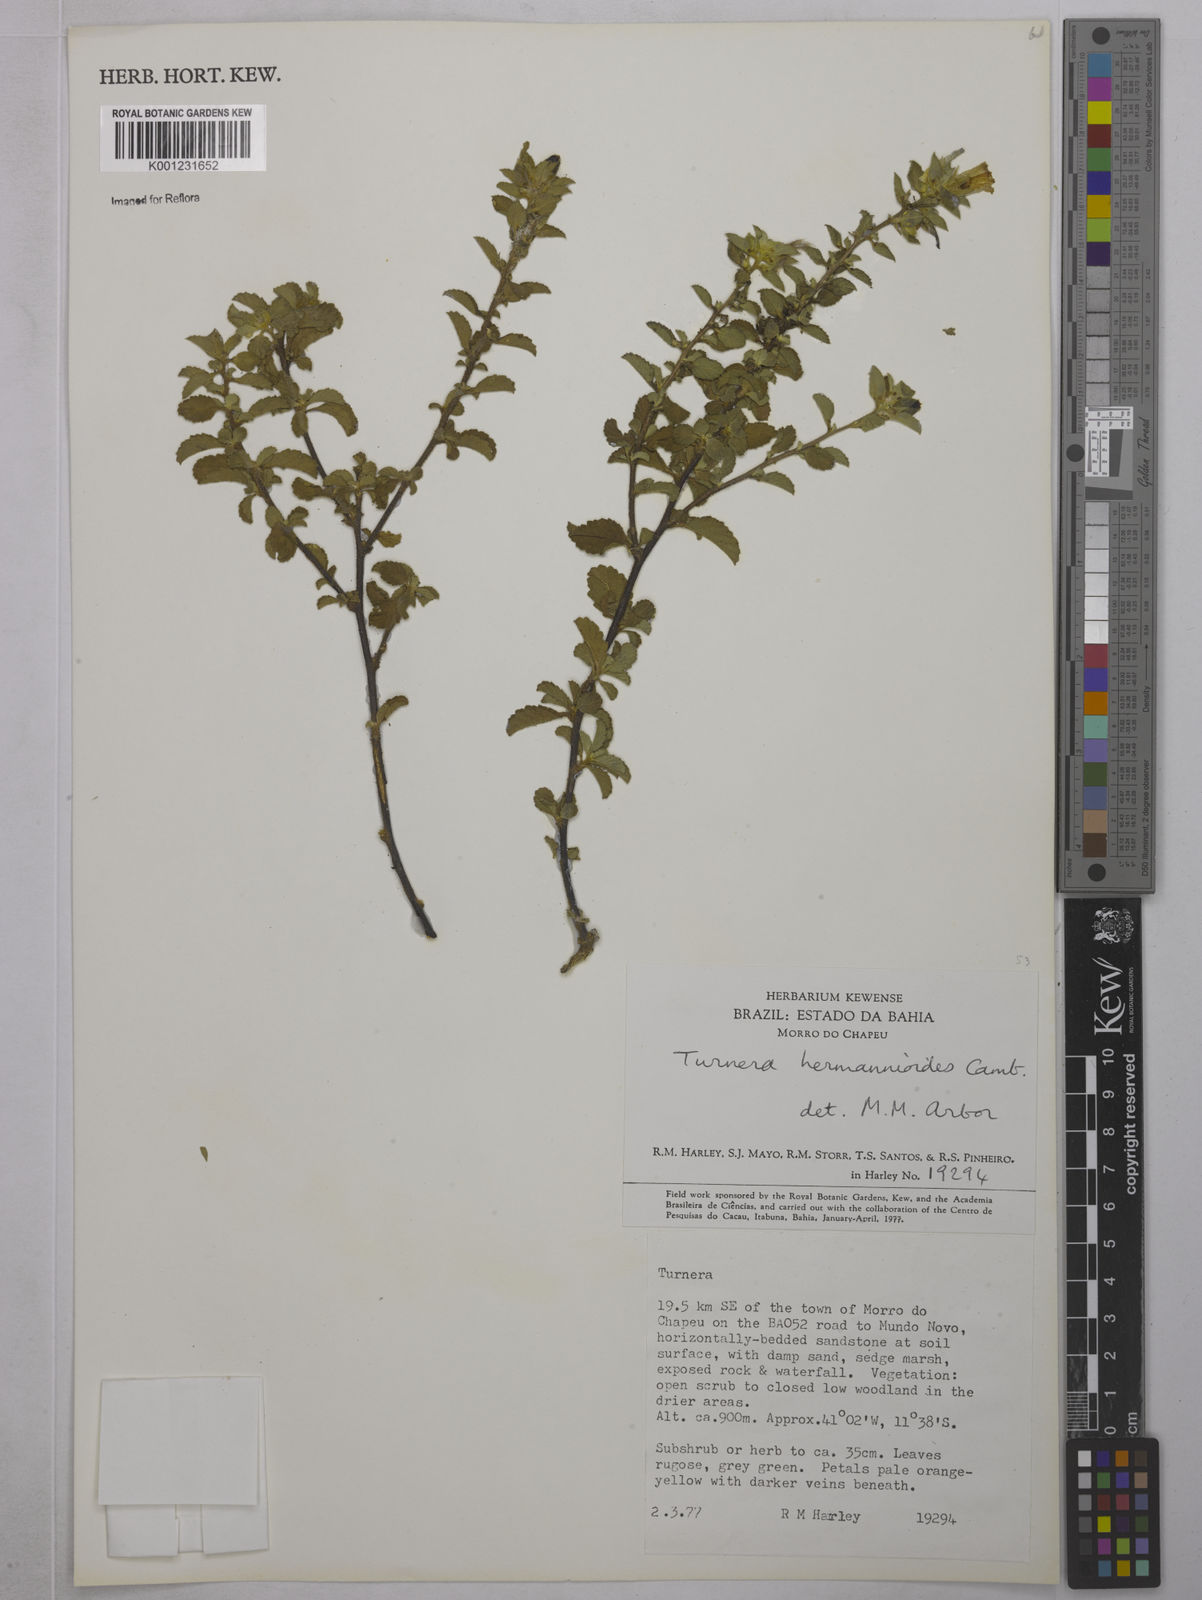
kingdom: Plantae
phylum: Tracheophyta
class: Magnoliopsida
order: Malpighiales
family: Turneraceae
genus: Turnera
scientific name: Turnera hermannioides
